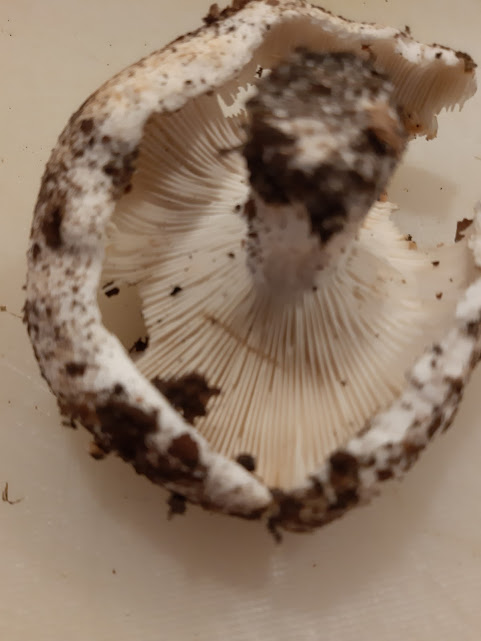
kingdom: Fungi
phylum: Basidiomycota
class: Agaricomycetes
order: Russulales
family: Russulaceae
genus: Russula
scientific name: Russula chloroides
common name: grønhalset tragt-skørhat
